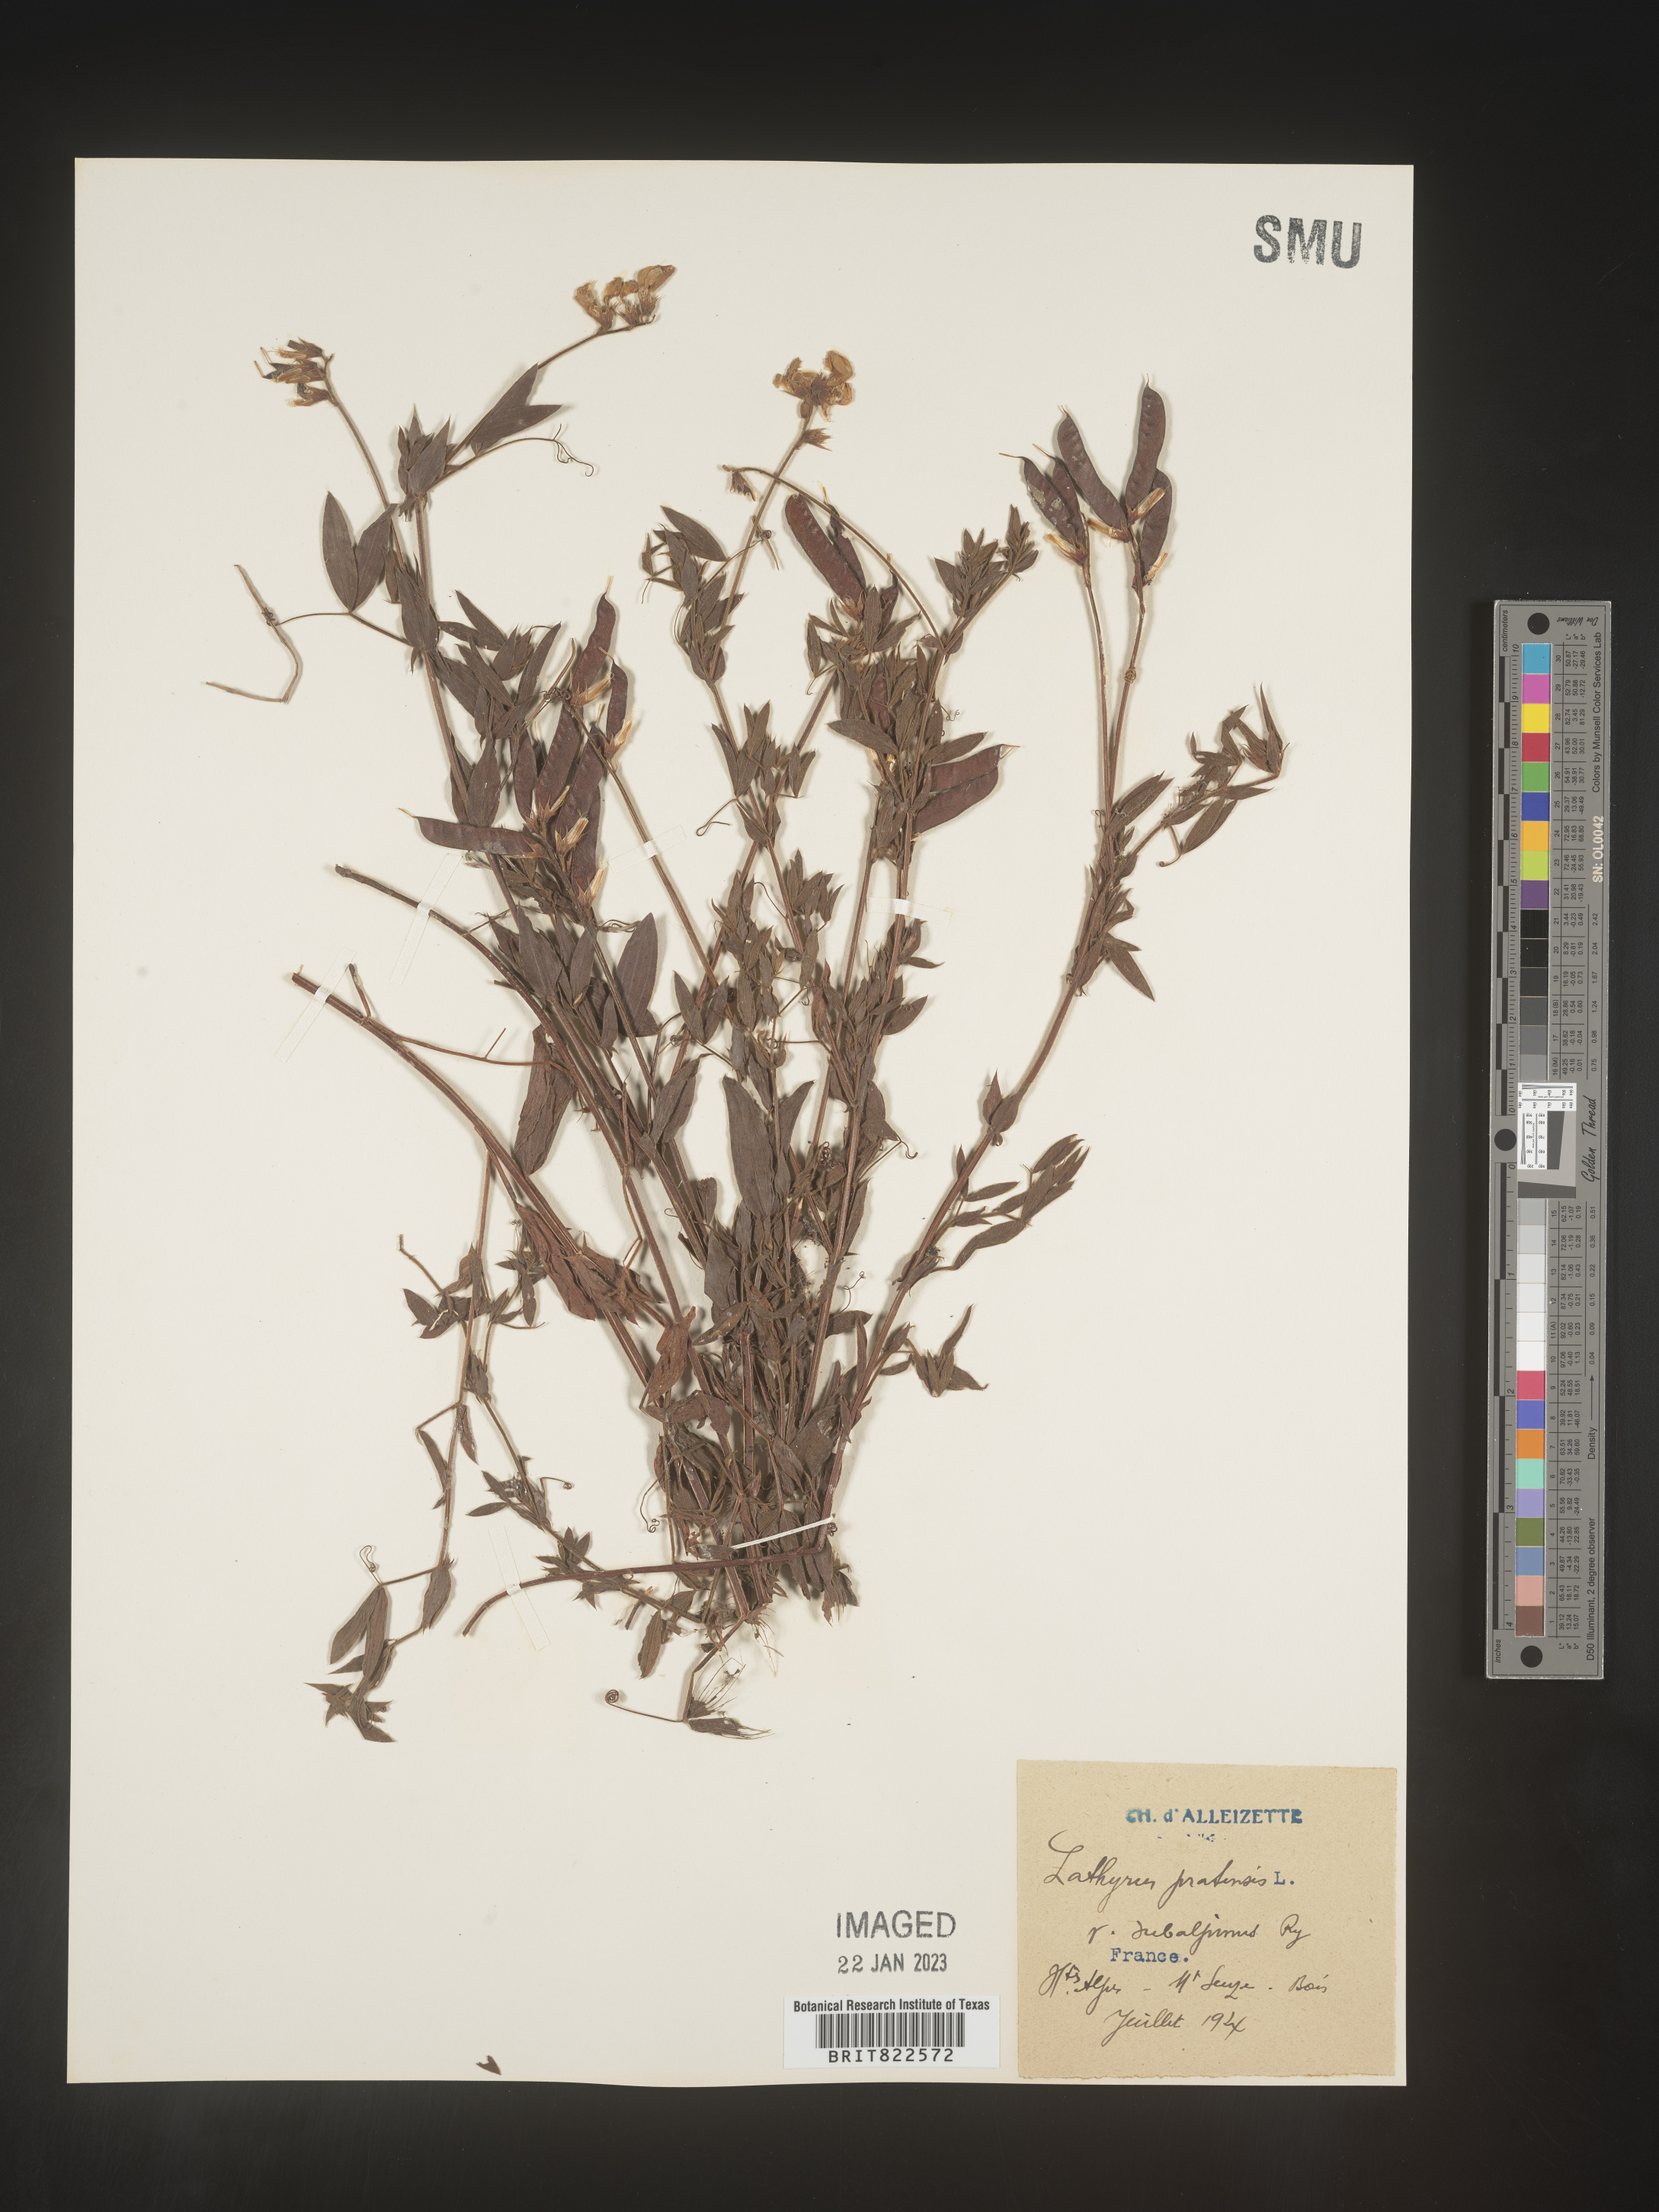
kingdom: Plantae
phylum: Tracheophyta
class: Magnoliopsida
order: Fabales
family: Fabaceae
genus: Lathyrus
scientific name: Lathyrus
